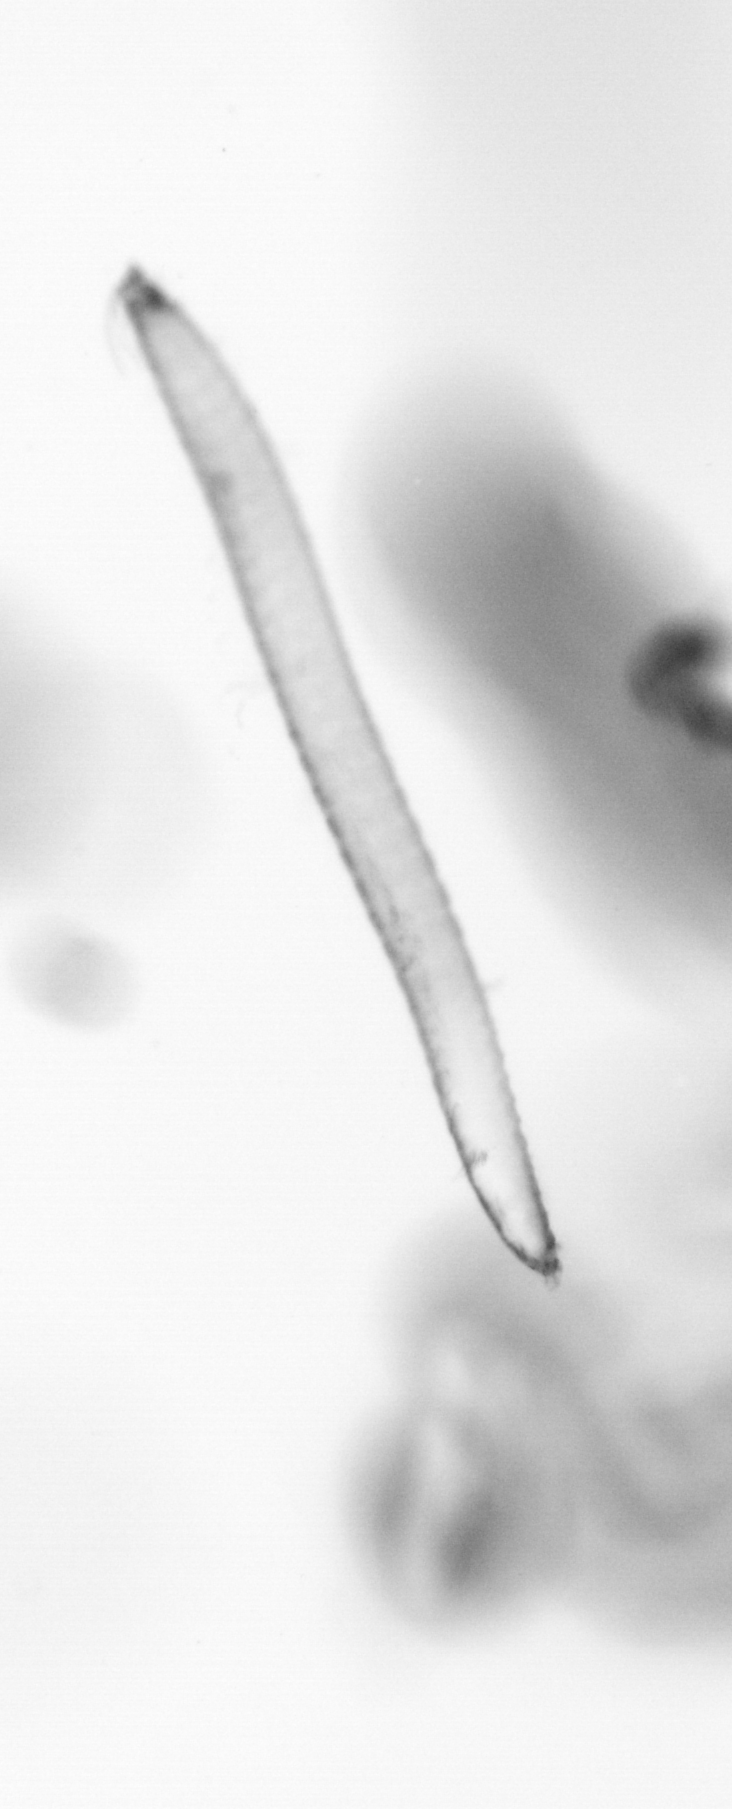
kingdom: Animalia
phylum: Annelida
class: Polychaeta
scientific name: Polychaeta
